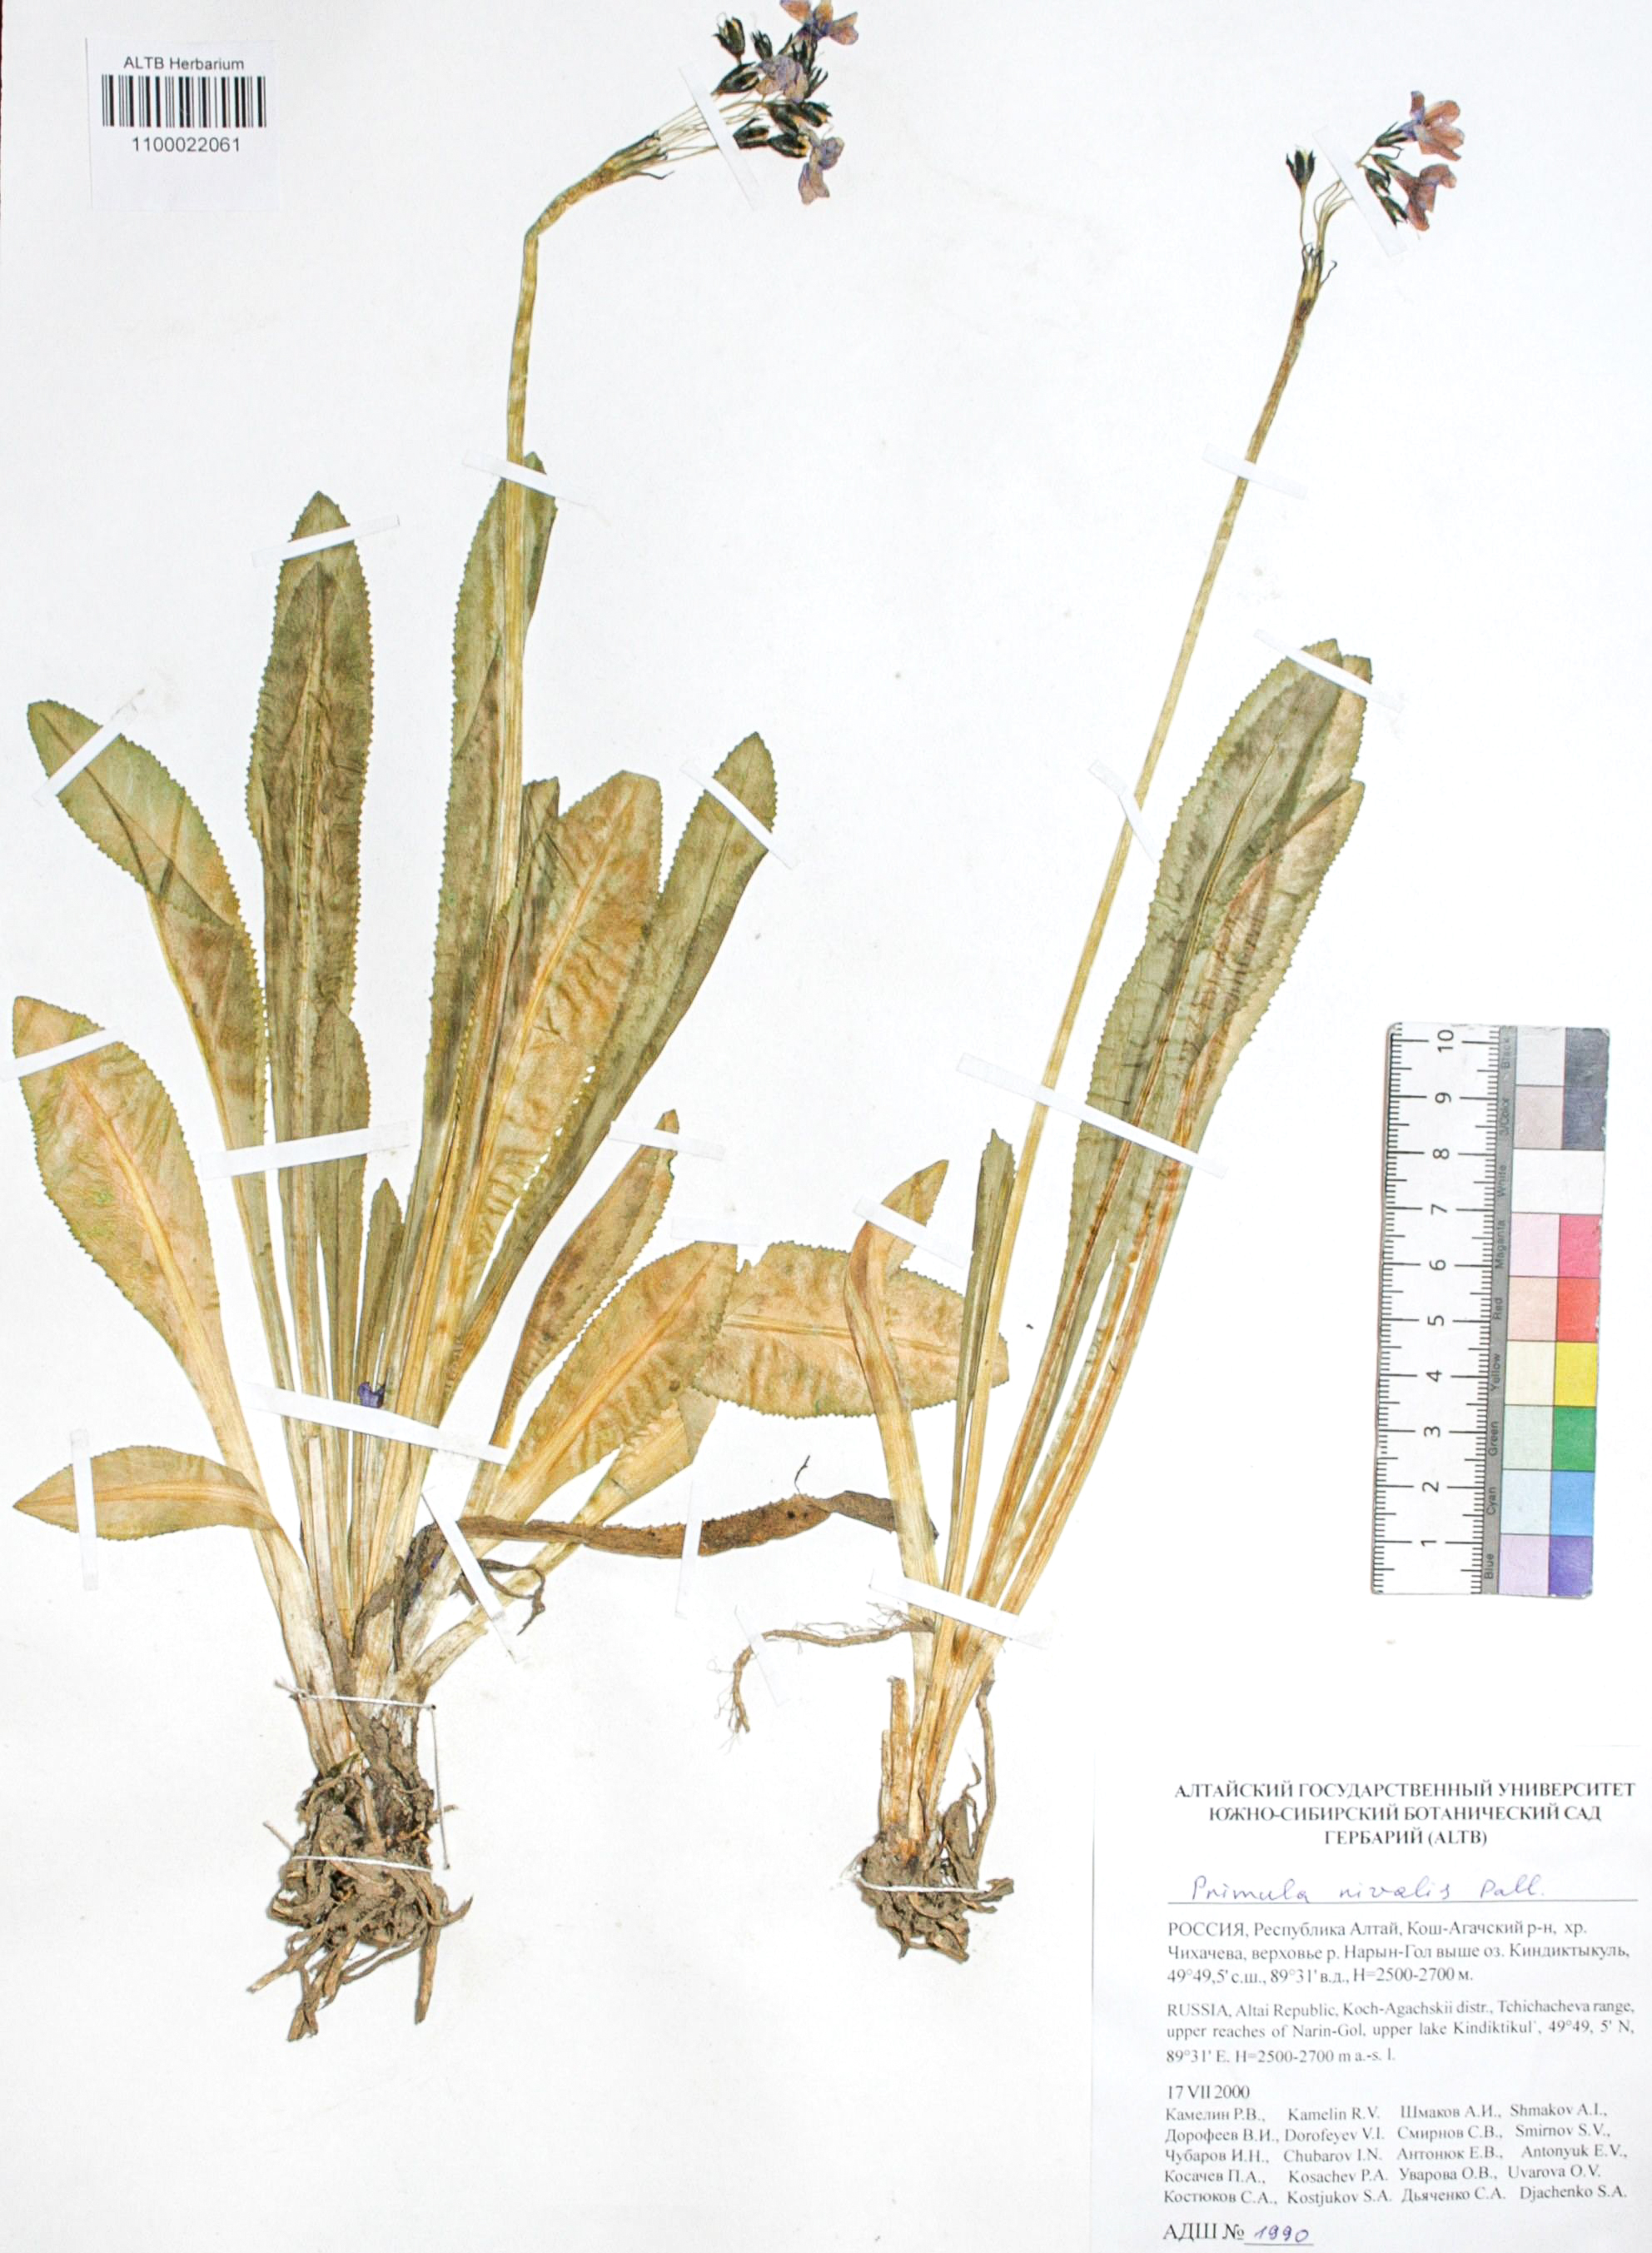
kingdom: Plantae
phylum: Tracheophyta
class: Magnoliopsida
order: Ericales
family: Primulaceae
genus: Primula
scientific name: Primula nivalis
